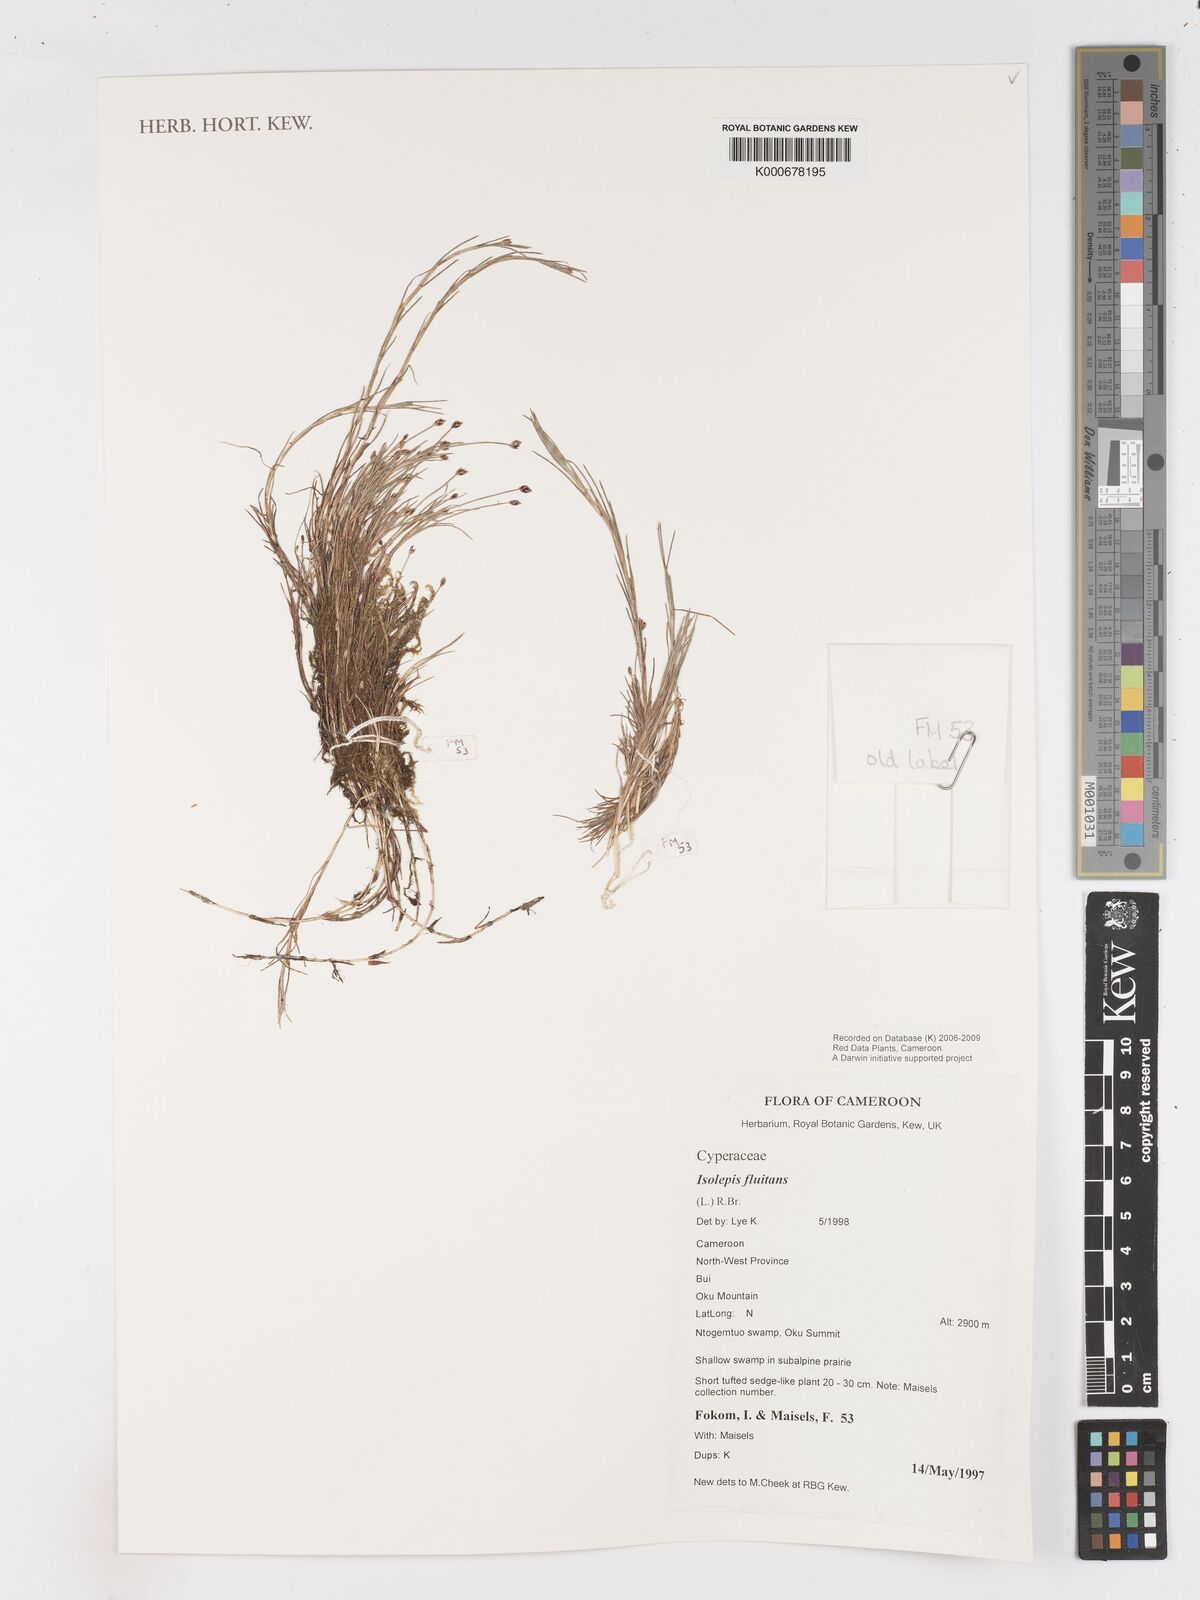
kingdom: Plantae
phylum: Tracheophyta
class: Liliopsida
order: Poales
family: Cyperaceae
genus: Isolepis
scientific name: Isolepis fluitans
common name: Floating club-rush
